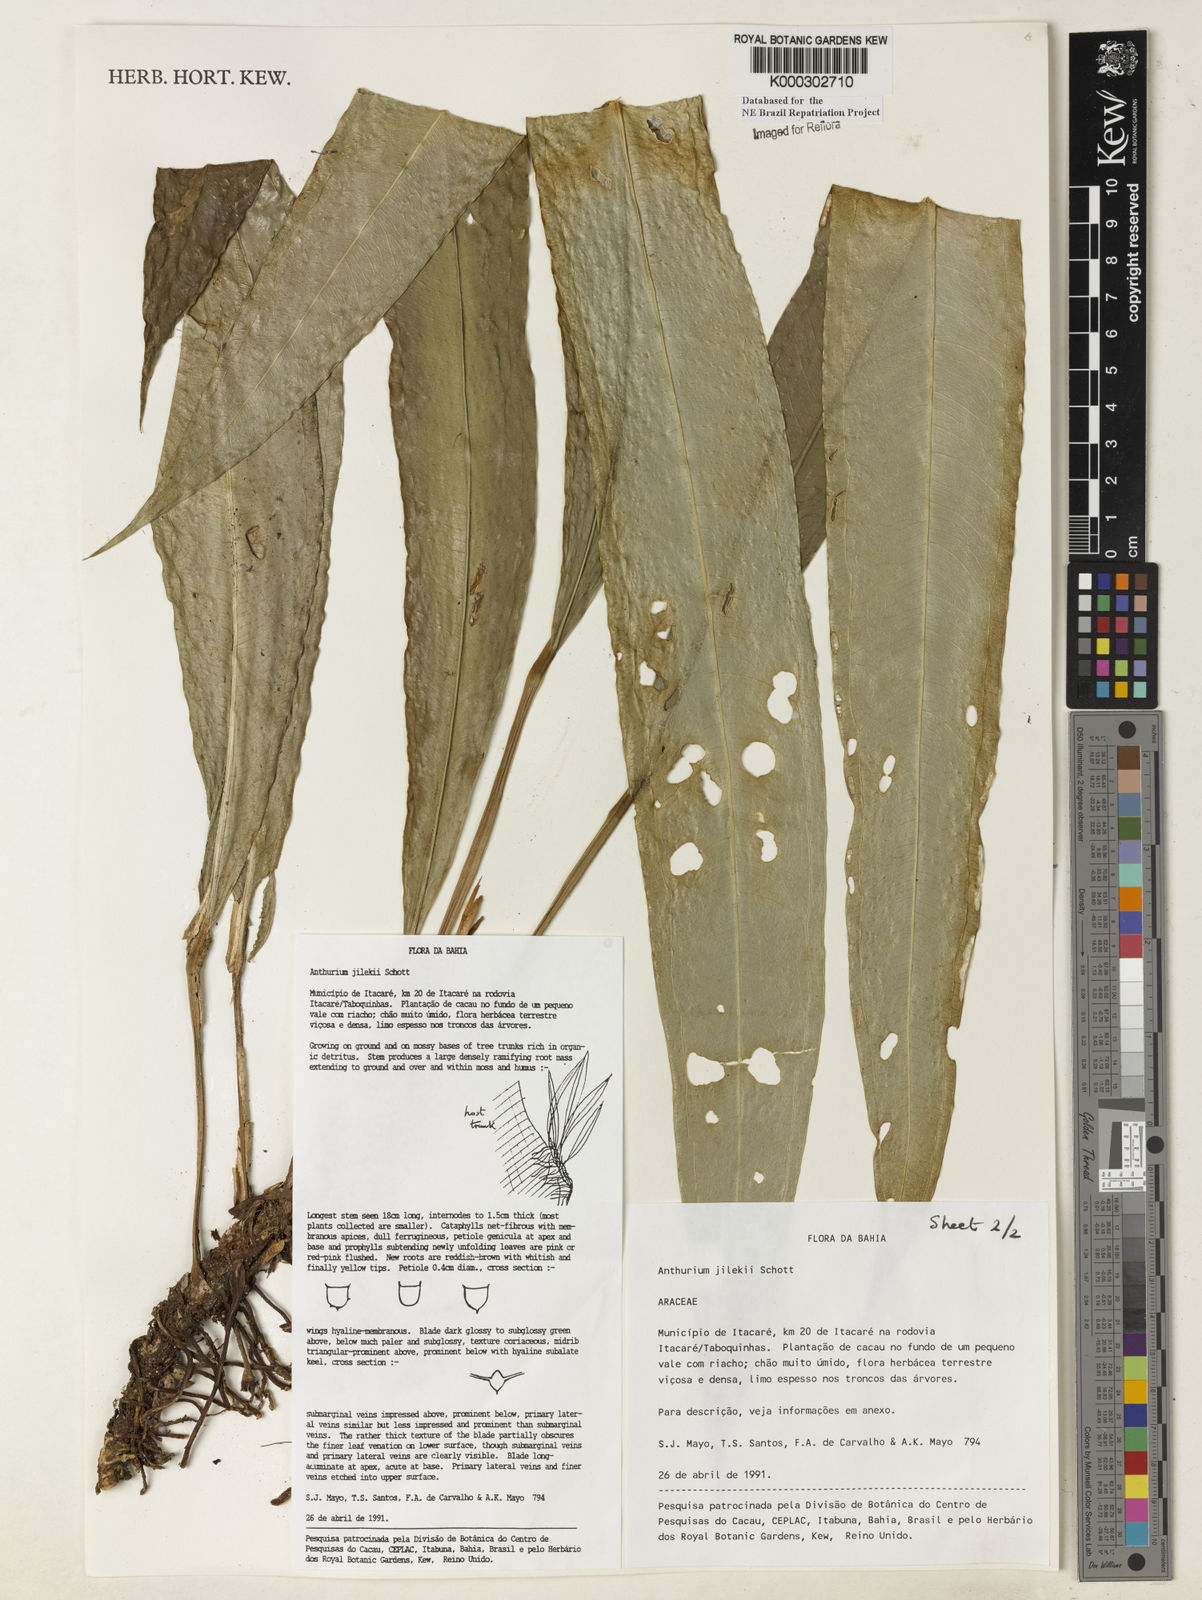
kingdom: Plantae
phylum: Tracheophyta
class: Liliopsida
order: Alismatales
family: Araceae
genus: Anthurium
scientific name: Anthurium jilekii
